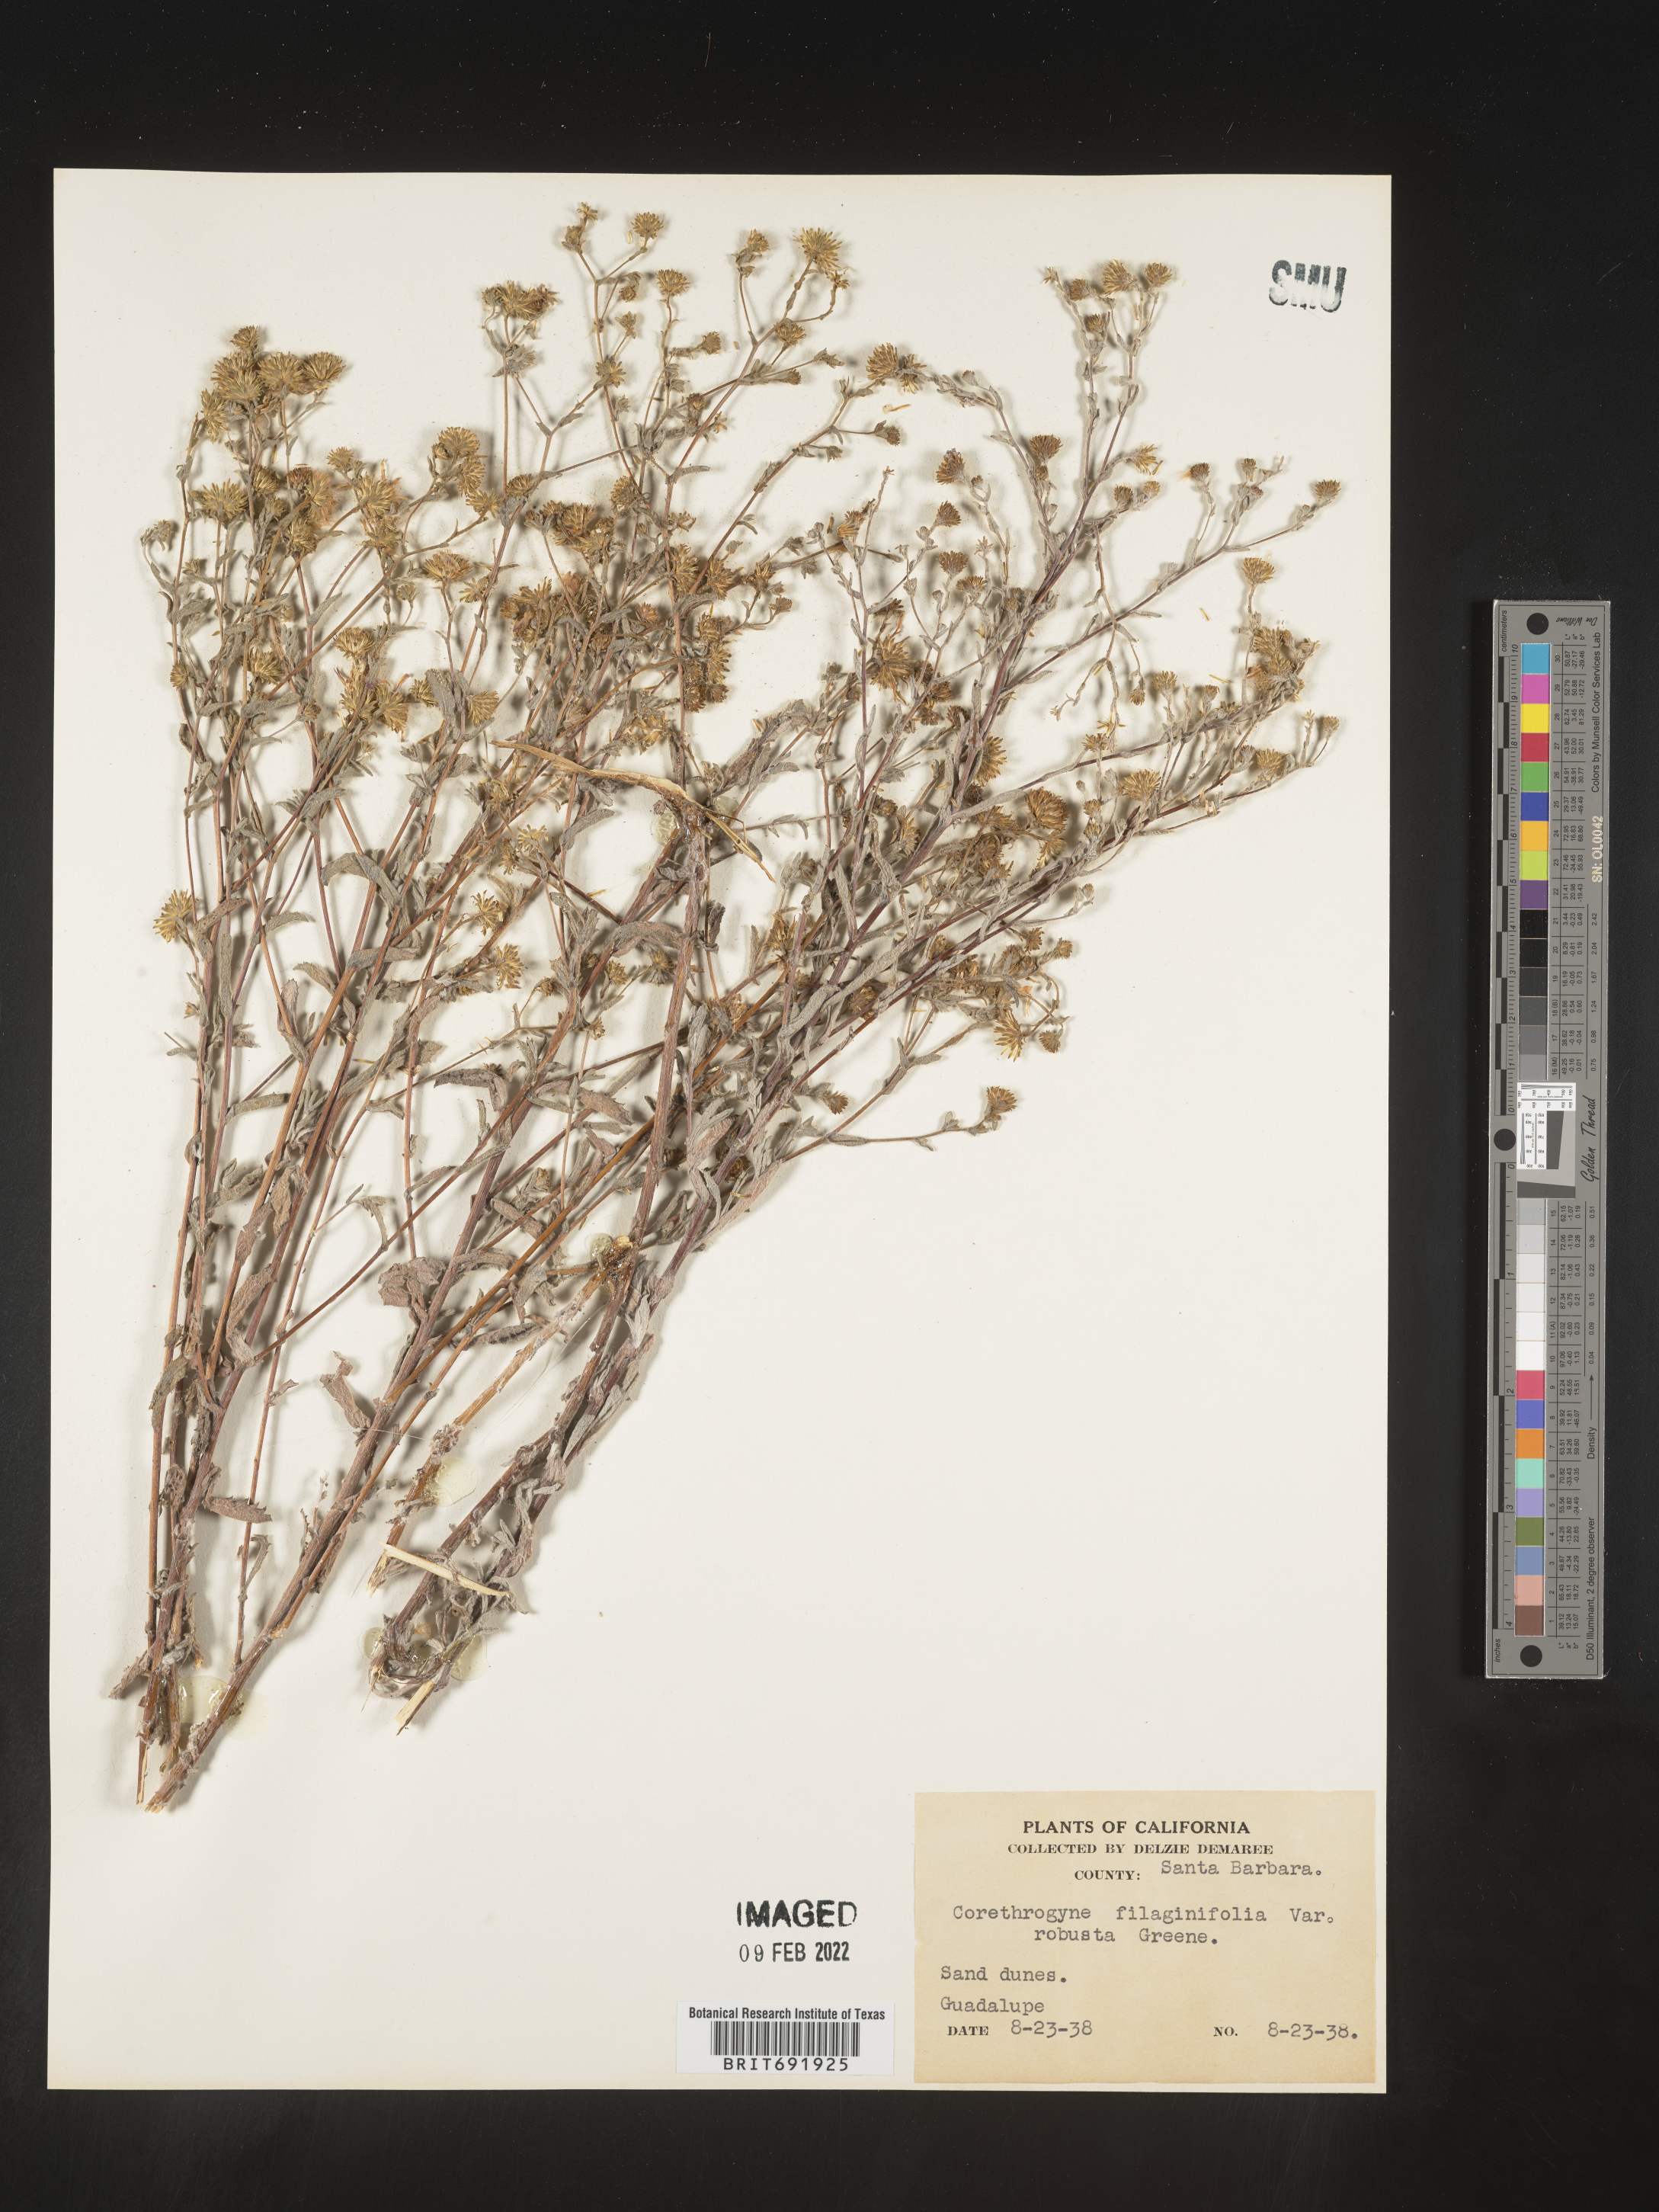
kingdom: Plantae
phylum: Tracheophyta
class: Magnoliopsida
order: Asterales
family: Asteraceae
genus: Corethrogyne
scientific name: Corethrogyne
